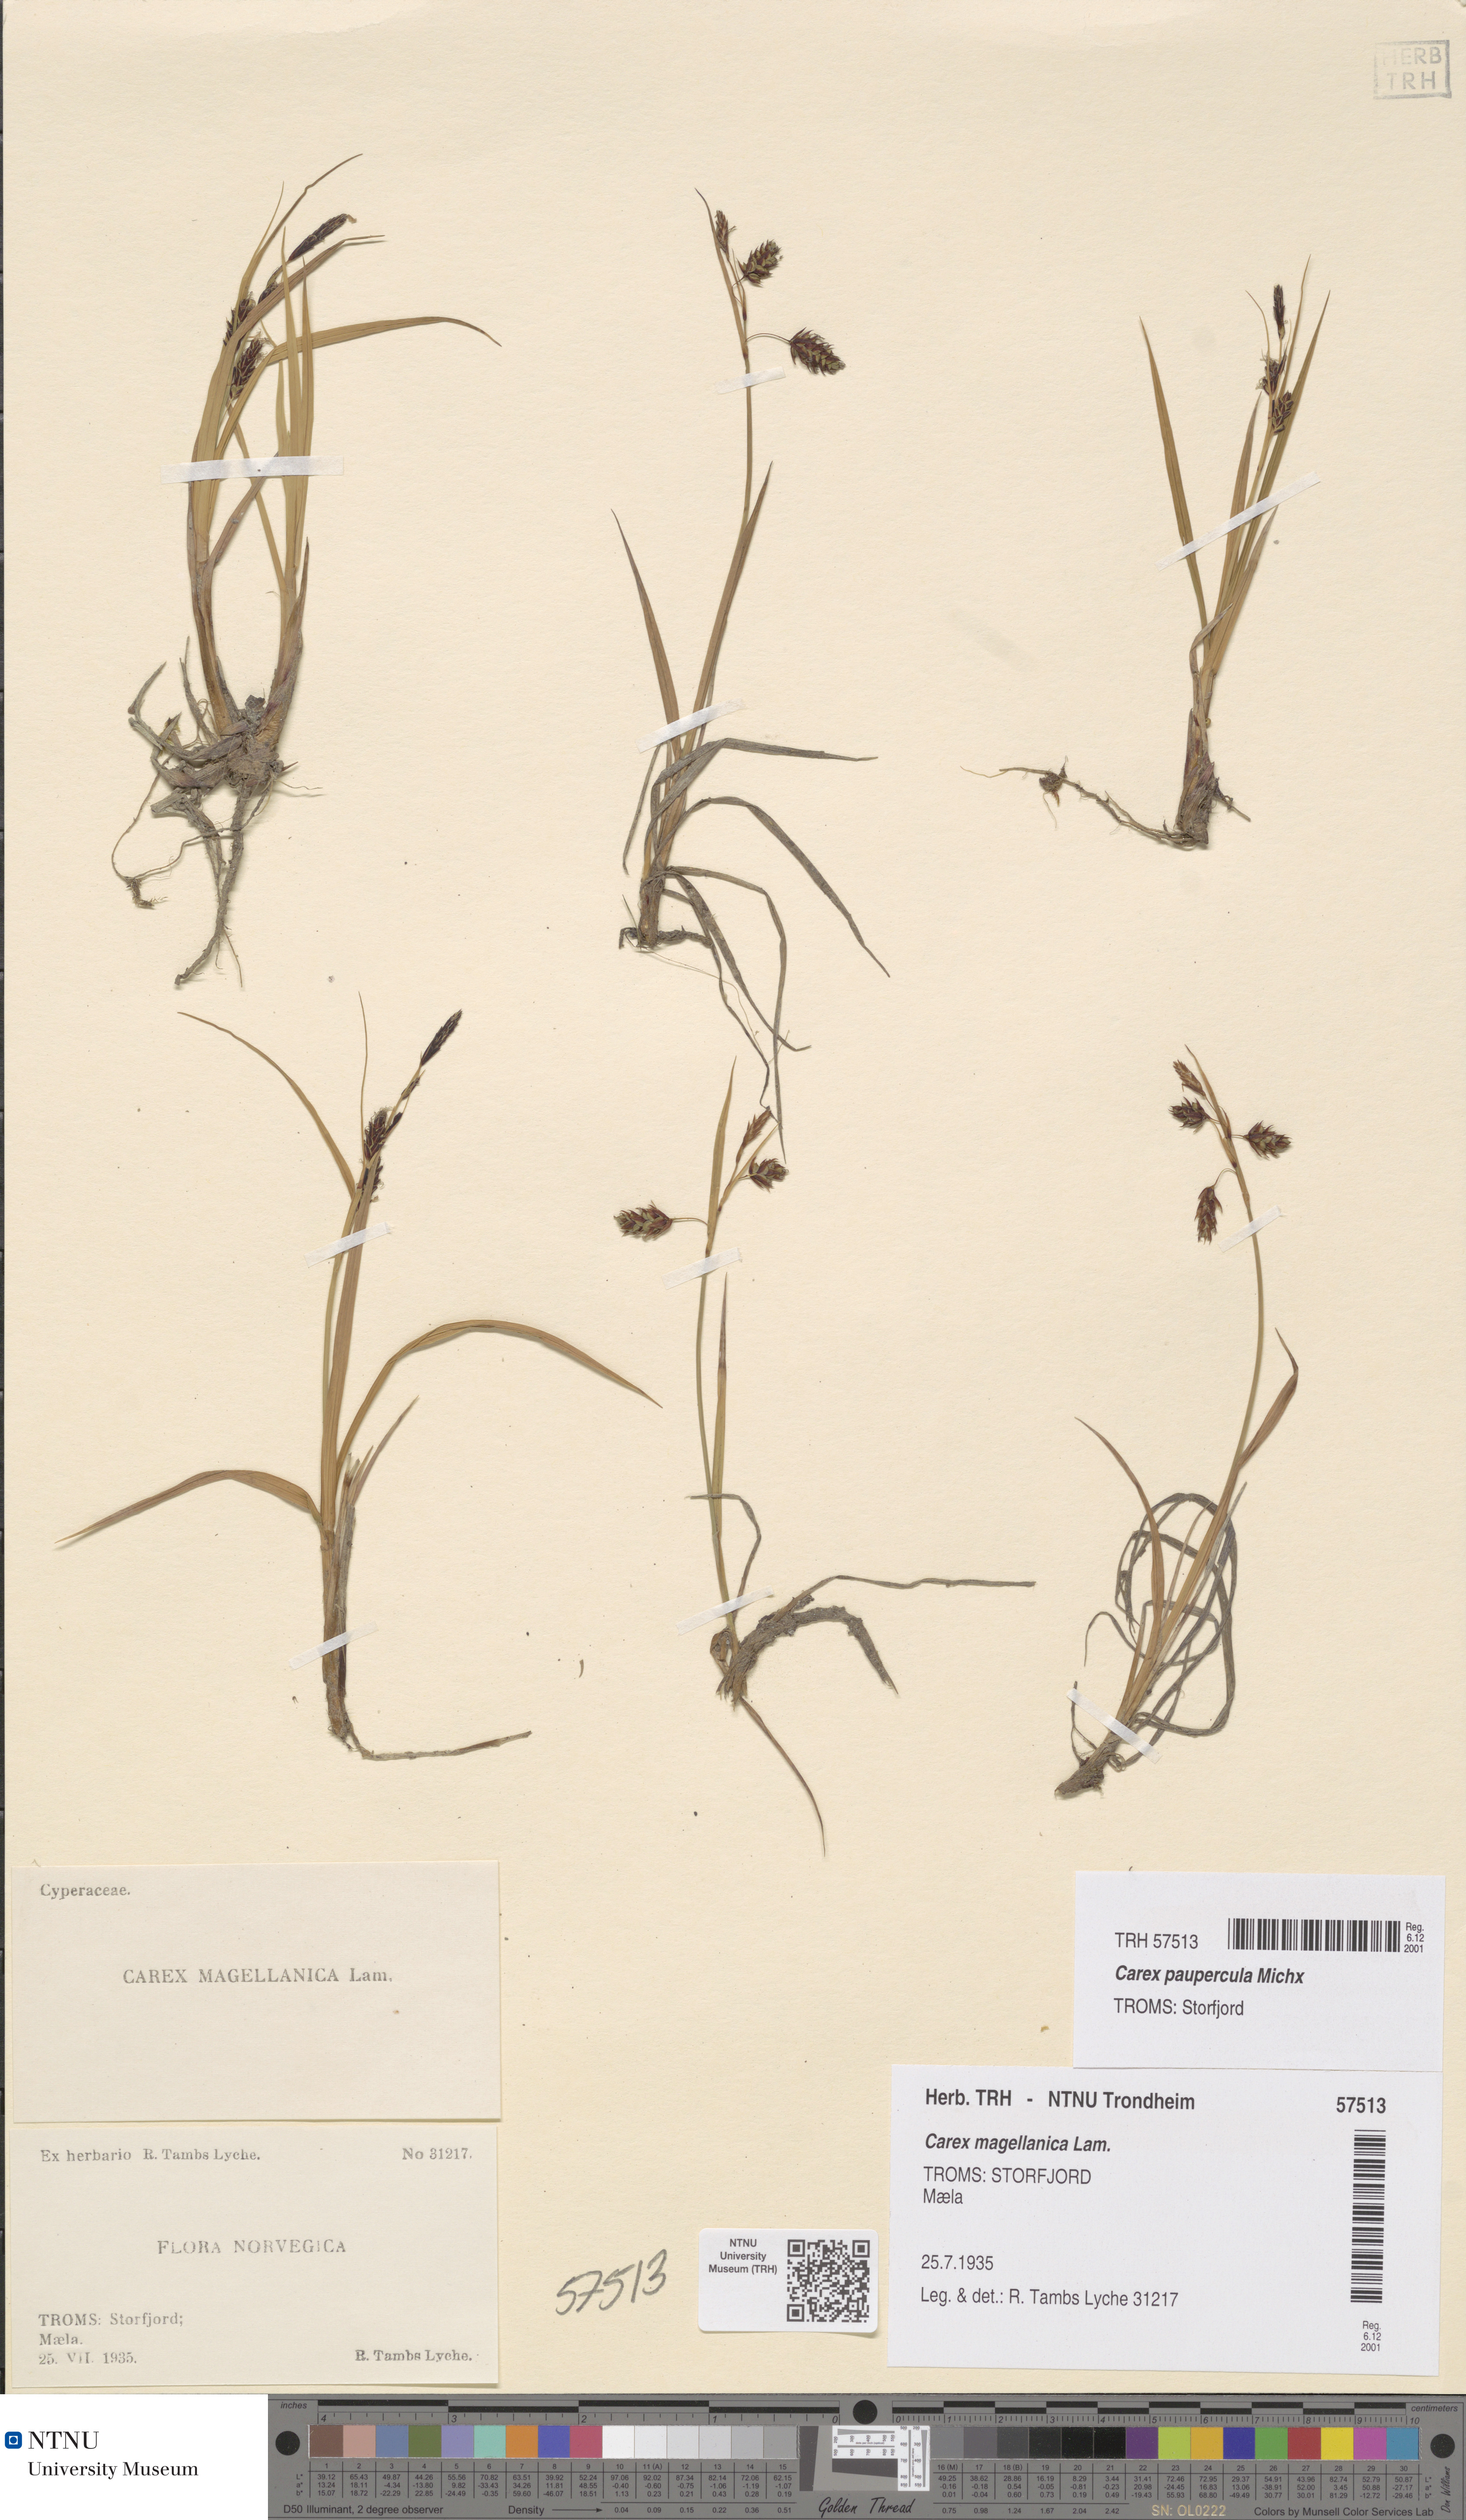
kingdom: Plantae
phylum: Tracheophyta
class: Liliopsida
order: Poales
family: Cyperaceae
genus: Carex
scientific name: Carex magellanica
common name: Bog sedge
